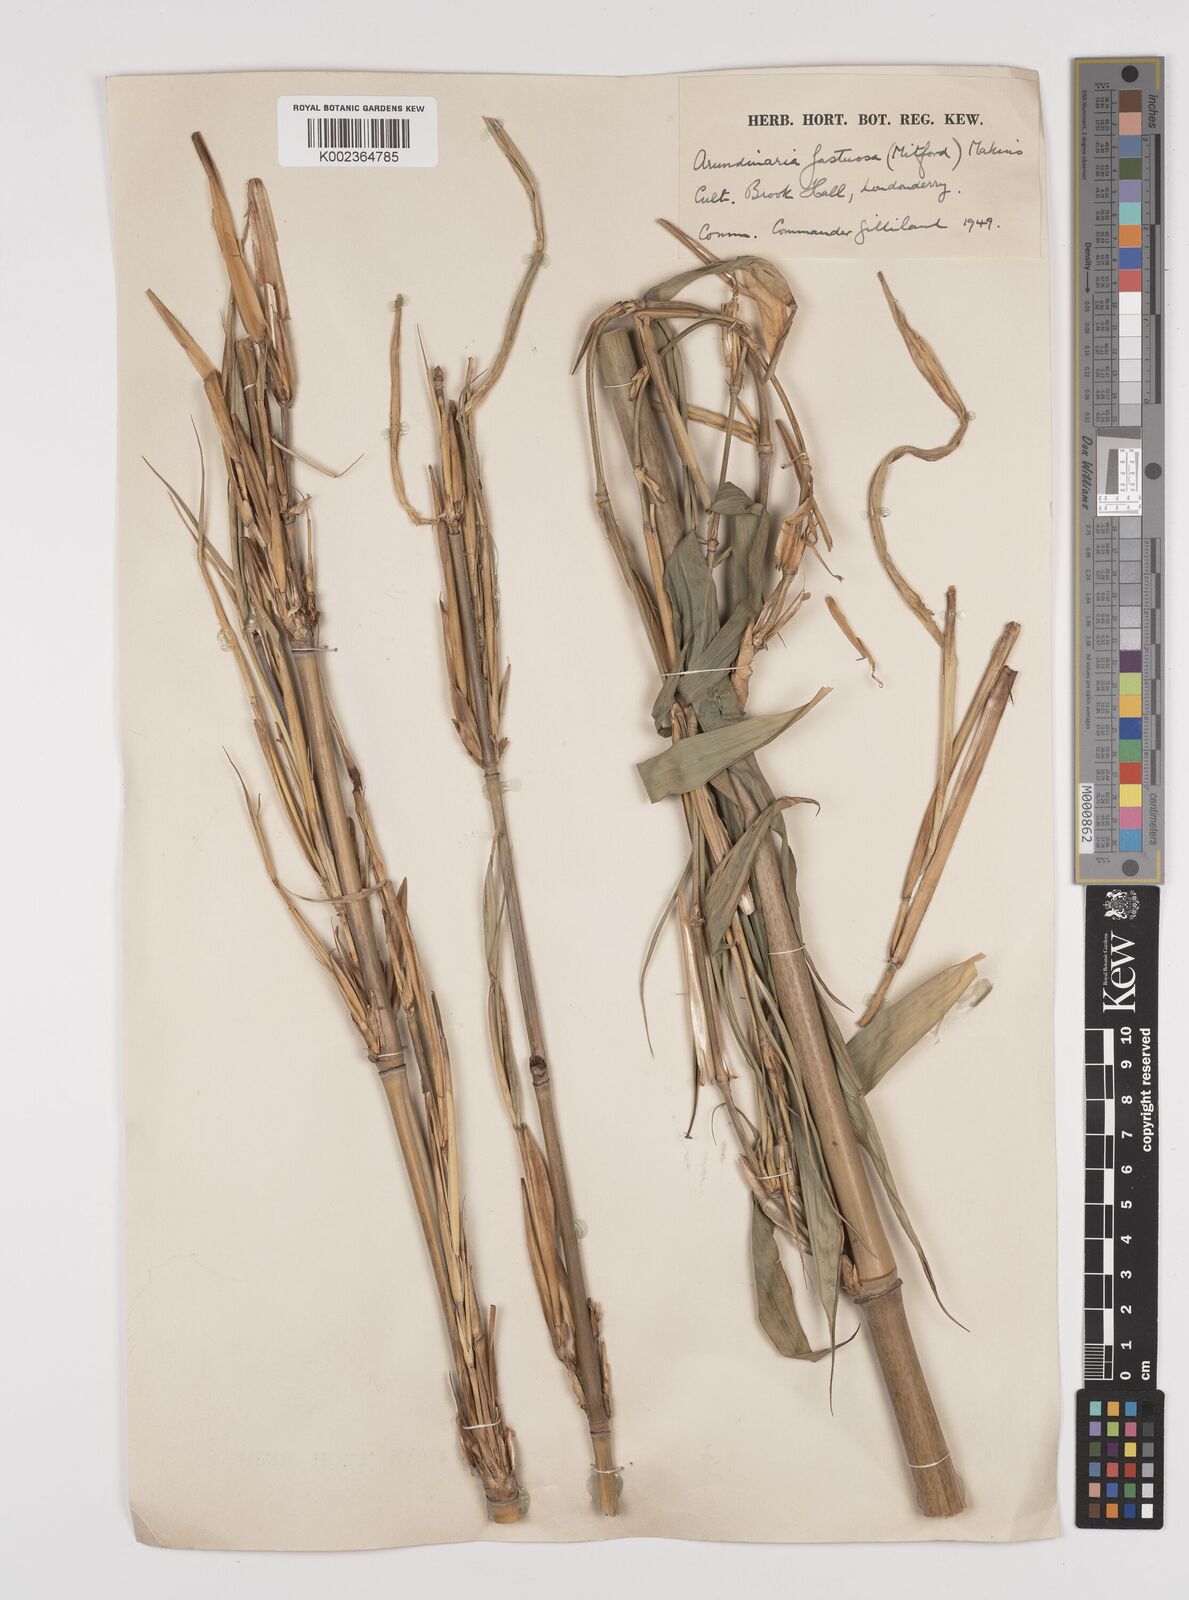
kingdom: Plantae
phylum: Tracheophyta
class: Liliopsida
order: Poales
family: Poaceae
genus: Semiarundinaria
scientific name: Semiarundinaria fastuosa
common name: Narihira bamboo
